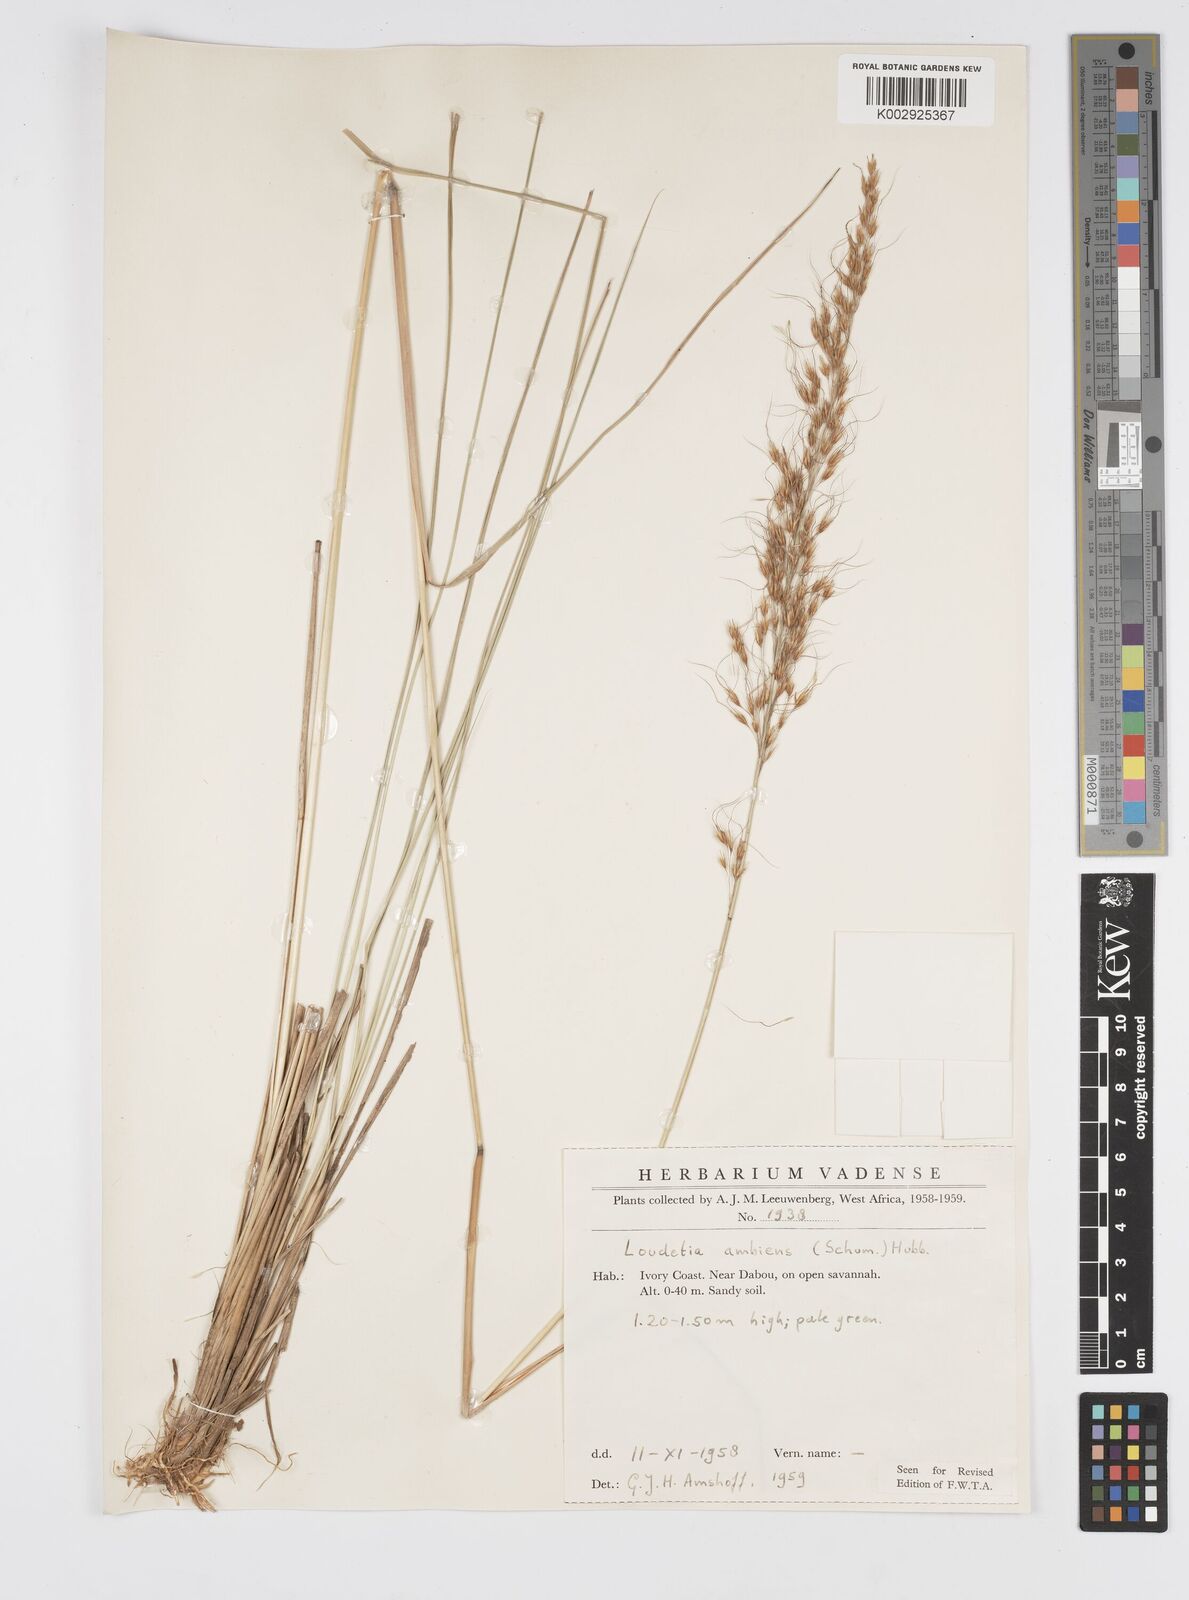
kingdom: Plantae
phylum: Tracheophyta
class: Liliopsida
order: Poales
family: Poaceae
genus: Loudetiopsis
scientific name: Loudetiopsis ambiens
